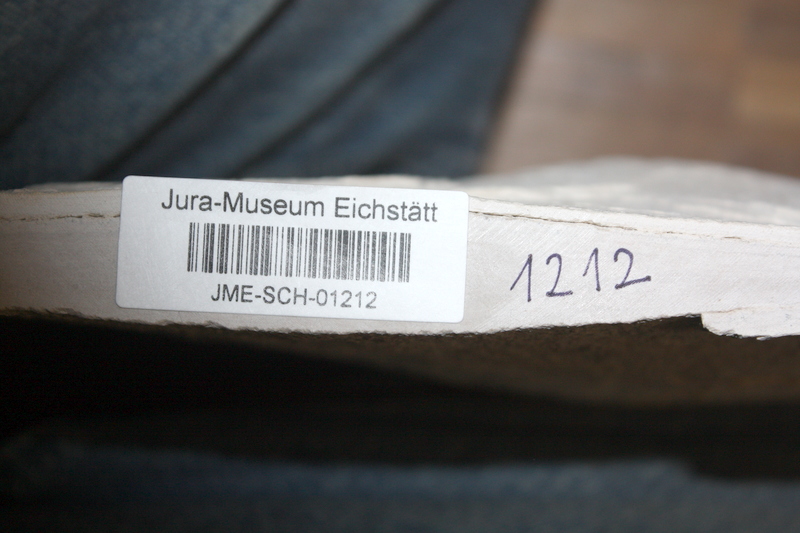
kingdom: Animalia
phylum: Chordata
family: Ascalaboidae
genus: Tharsis
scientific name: Tharsis dubius
